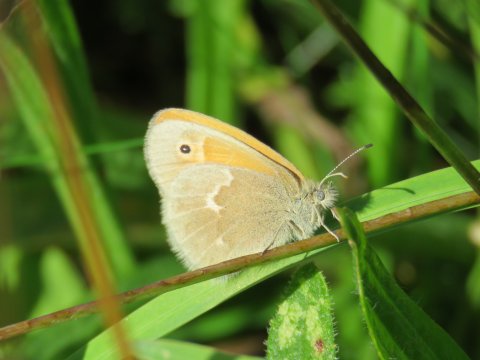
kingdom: Animalia
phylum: Arthropoda
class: Insecta
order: Lepidoptera
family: Nymphalidae
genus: Coenonympha
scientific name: Coenonympha california
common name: California Ringlet
